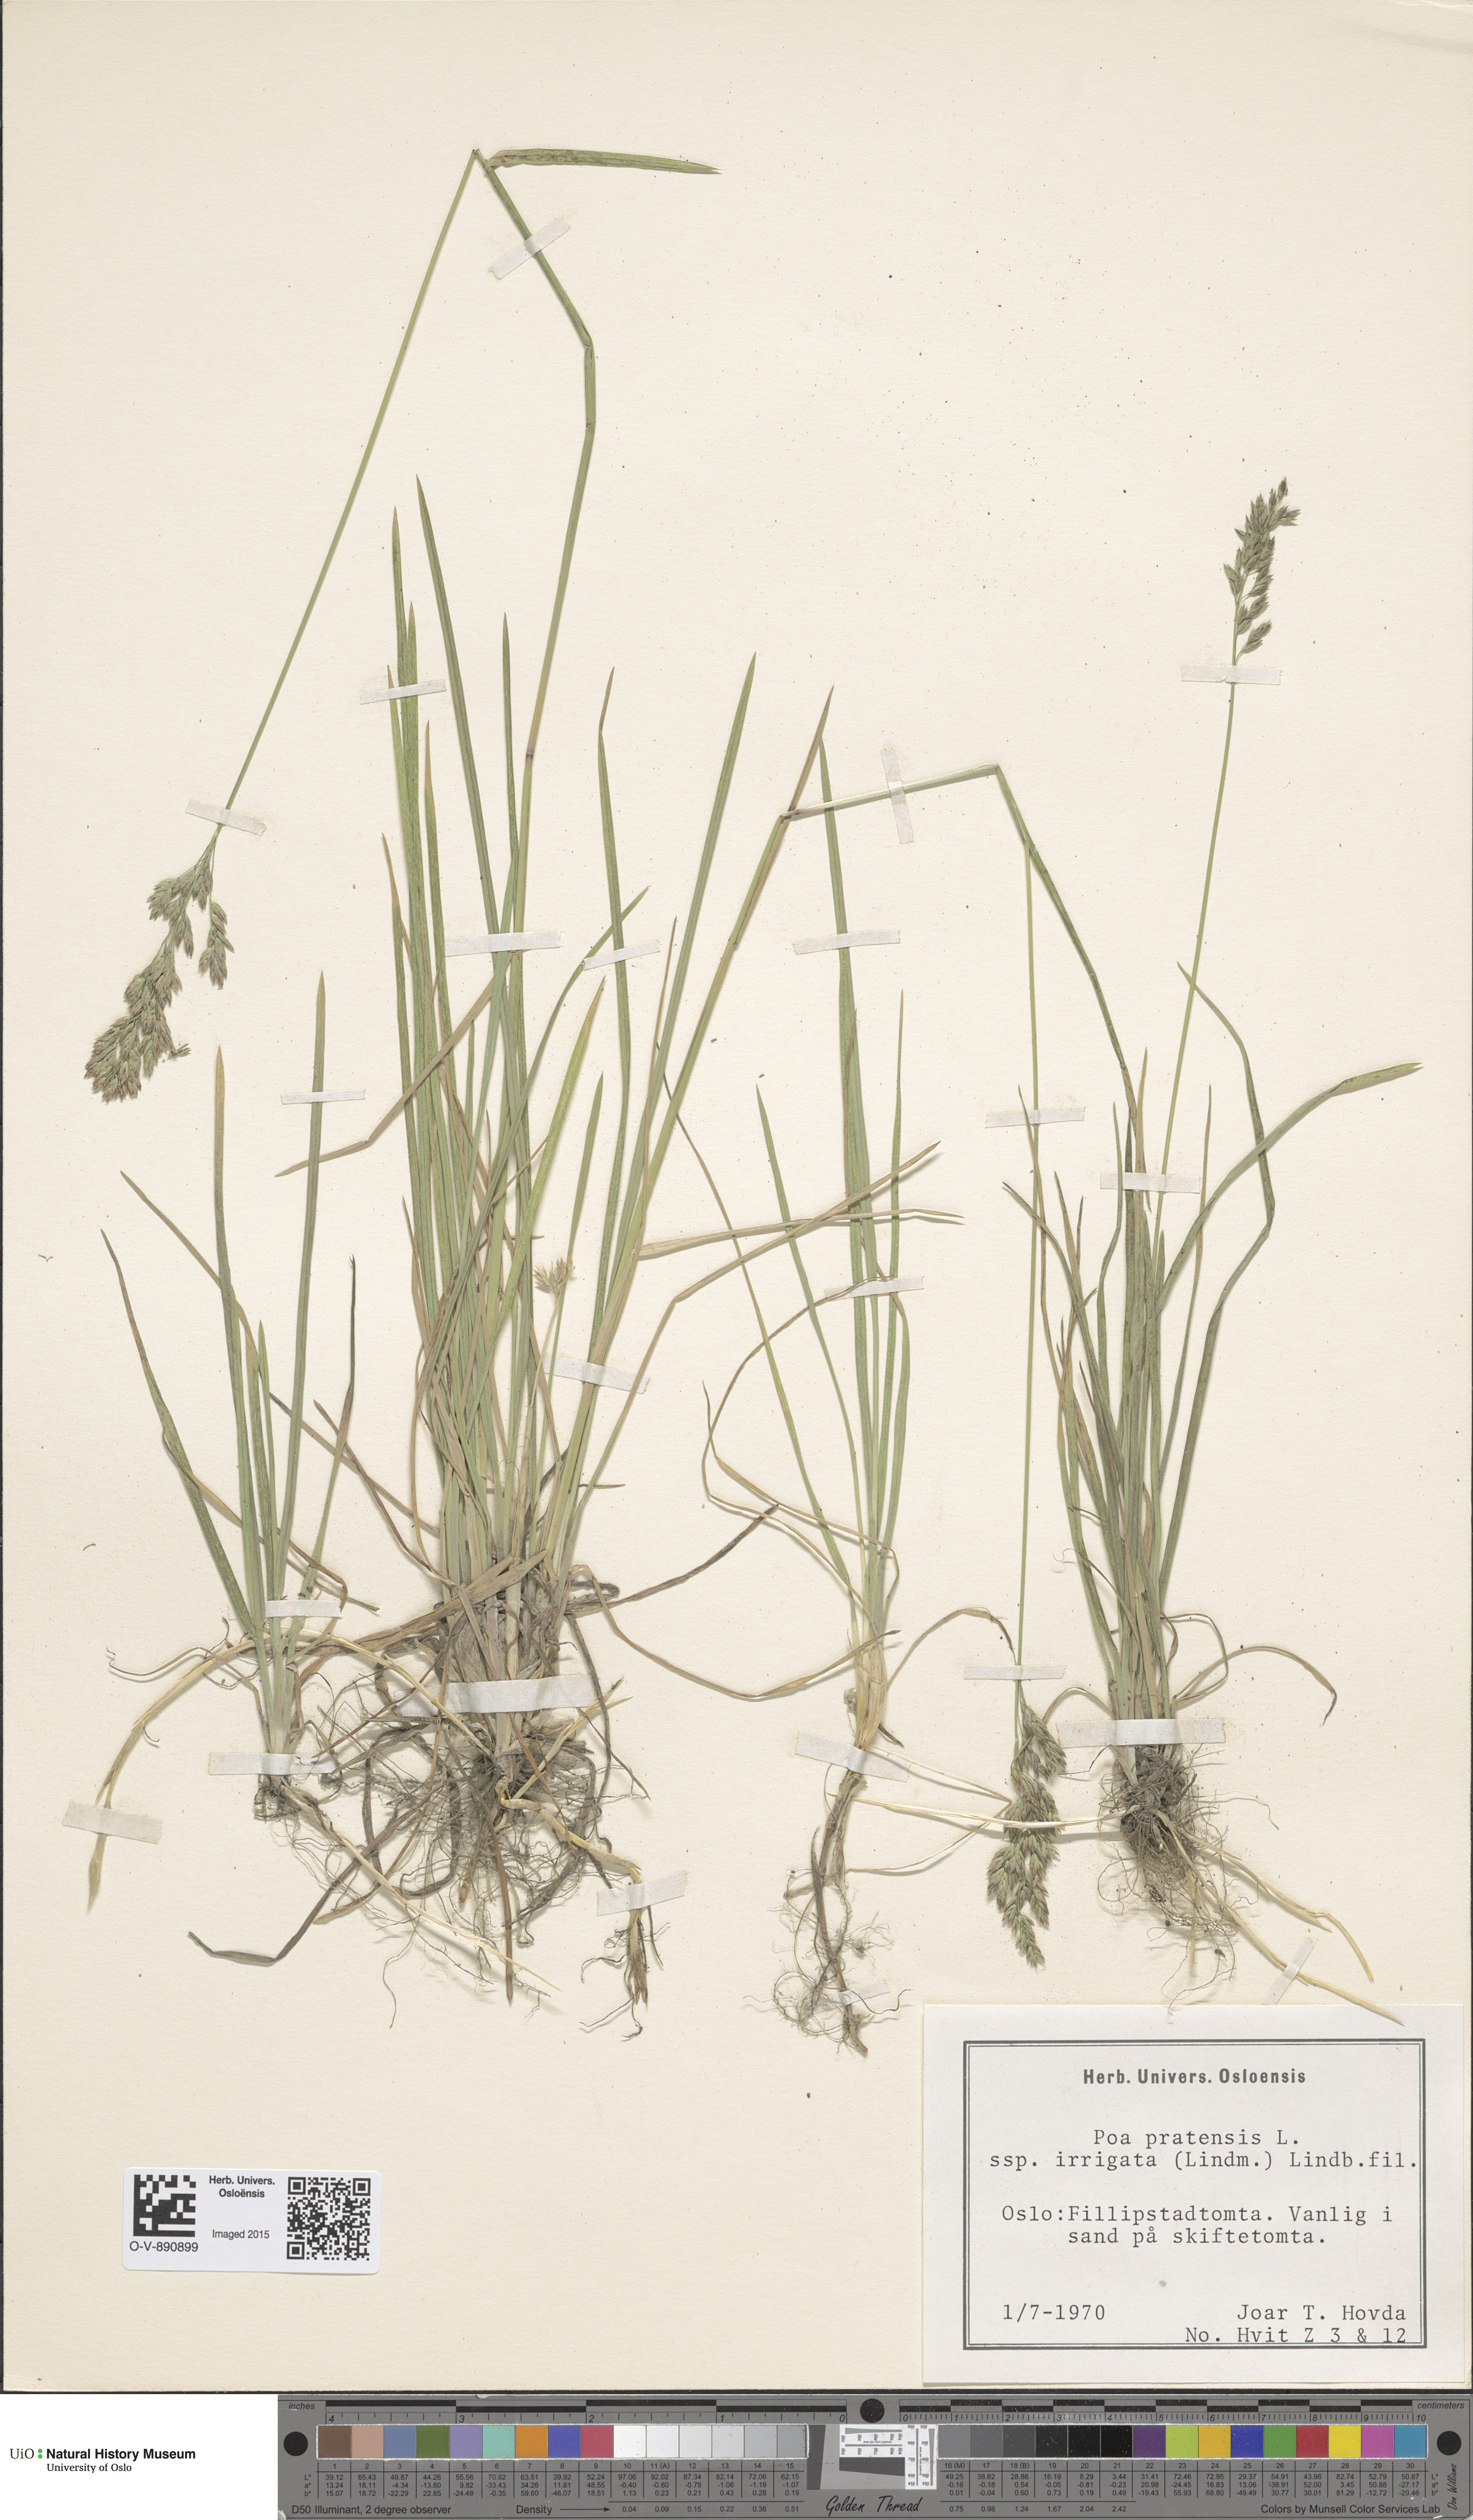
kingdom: Plantae
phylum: Tracheophyta
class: Liliopsida
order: Poales
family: Poaceae
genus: Poa
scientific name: Poa humilis
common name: Spreading meadow-grass
